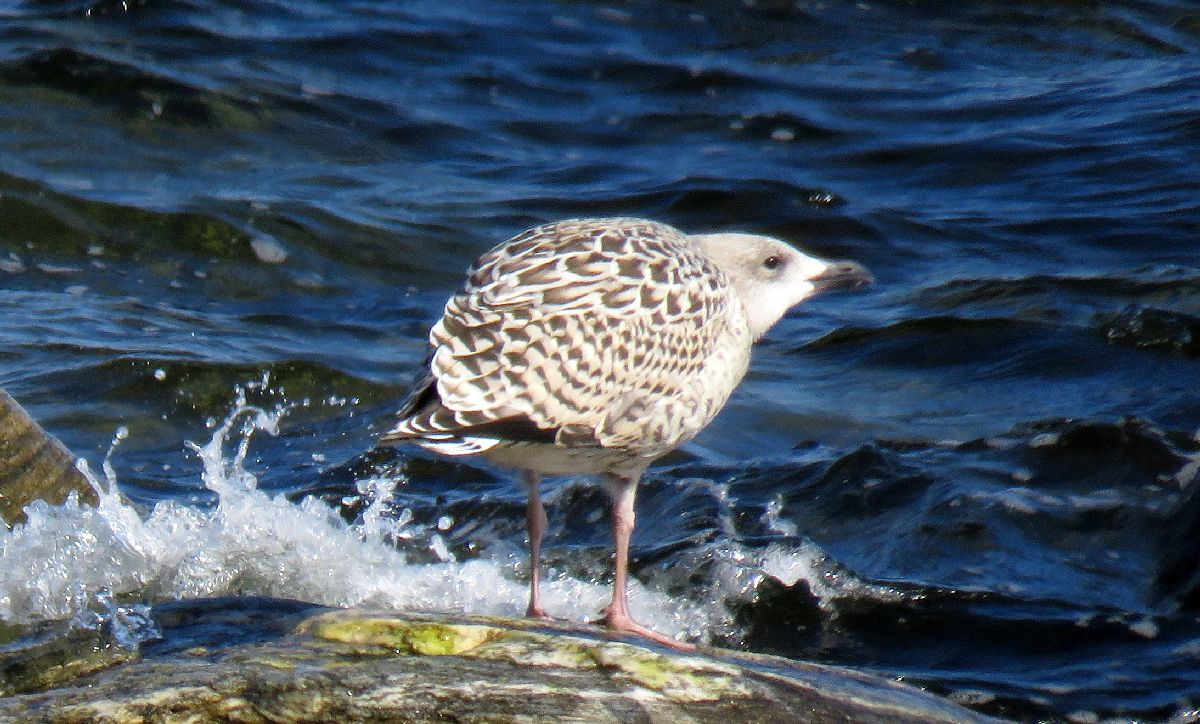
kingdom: Animalia
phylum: Chordata
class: Aves
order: Charadriiformes
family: Laridae
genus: Larus
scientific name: Larus marinus
